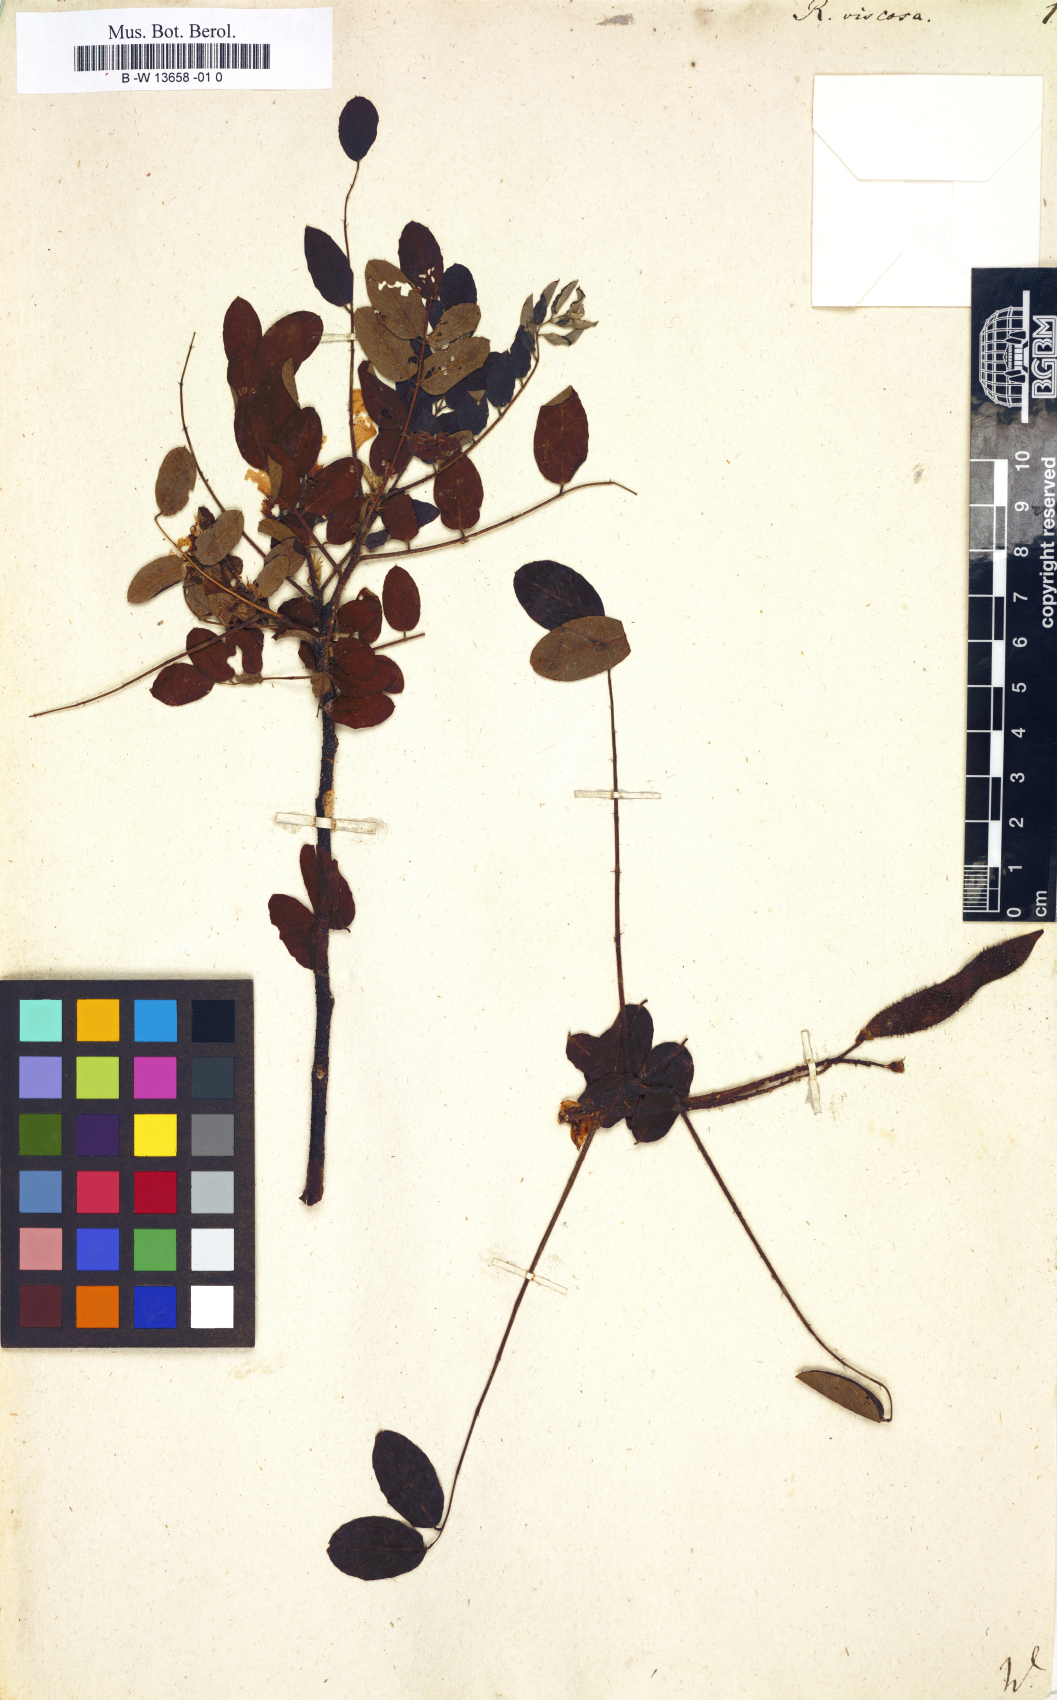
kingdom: Plantae
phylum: Tracheophyta
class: Magnoliopsida
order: Fabales
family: Fabaceae
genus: Robinia
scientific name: Robinia viscosa
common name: Clammy locust
